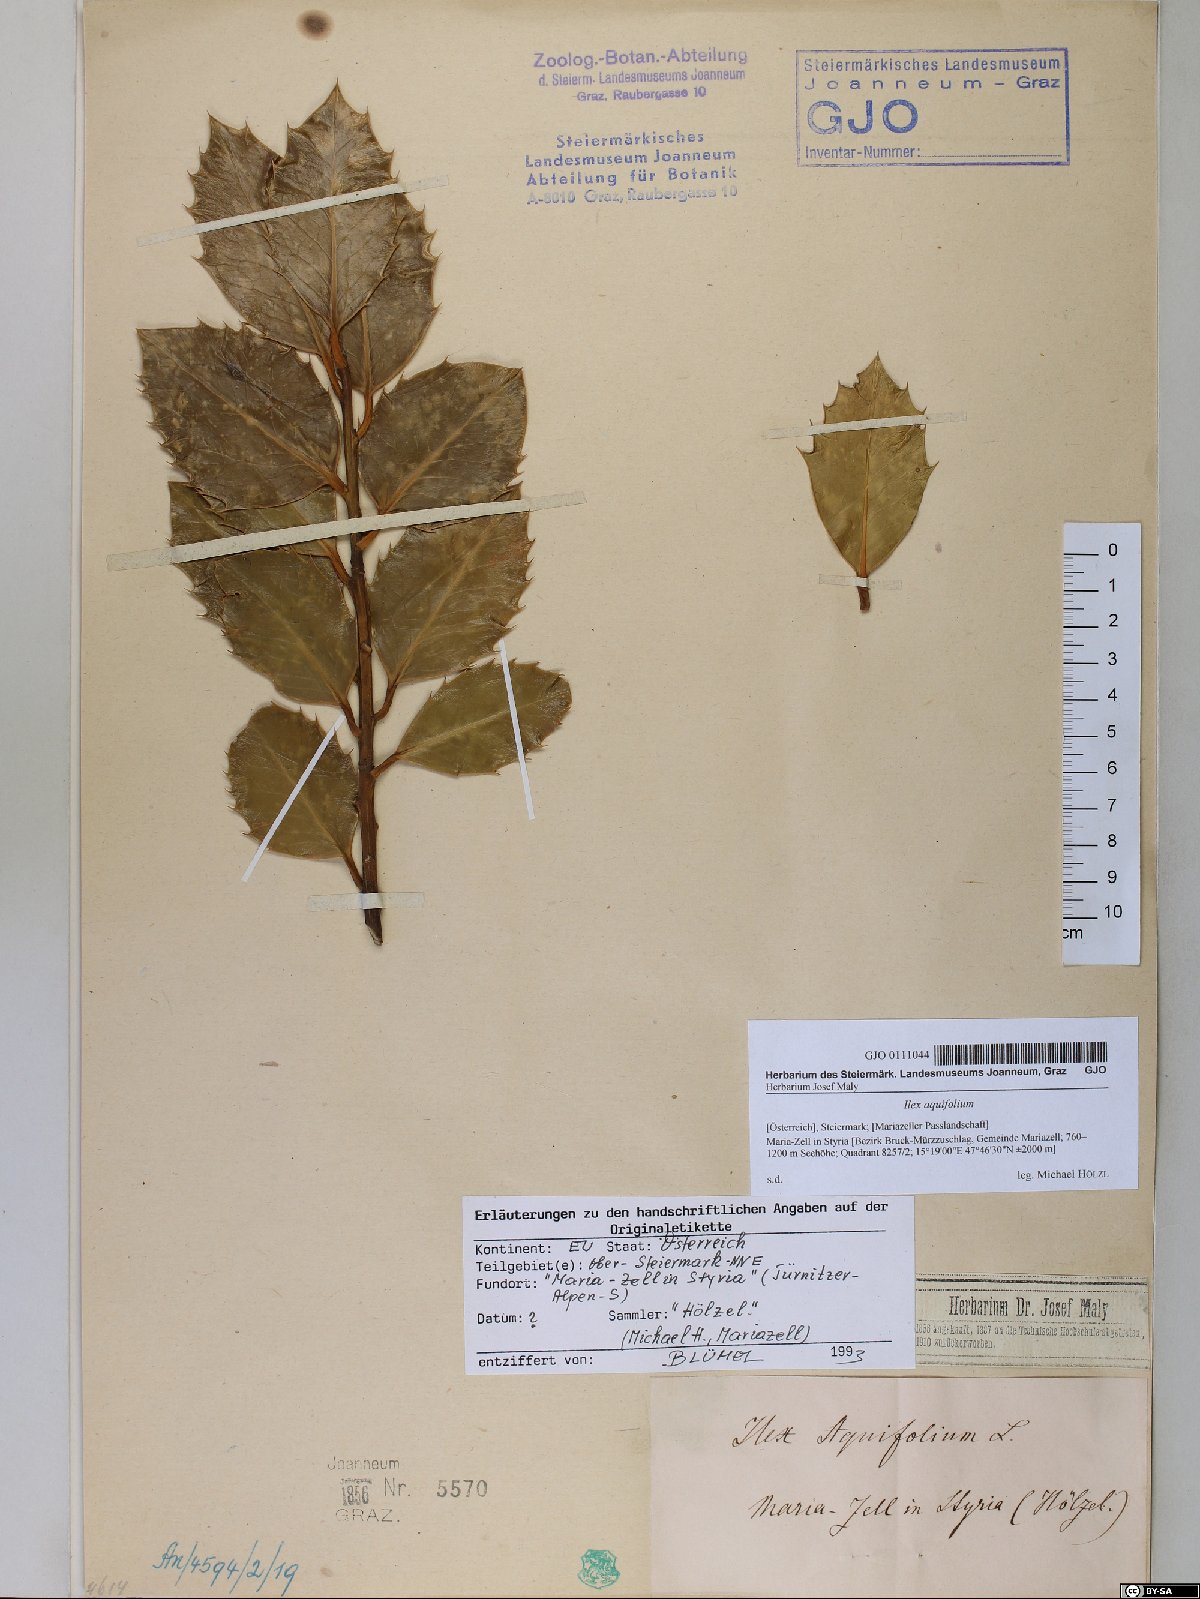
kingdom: Plantae
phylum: Tracheophyta
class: Magnoliopsida
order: Aquifoliales
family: Aquifoliaceae
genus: Ilex
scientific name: Ilex aquifolium
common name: English holly
